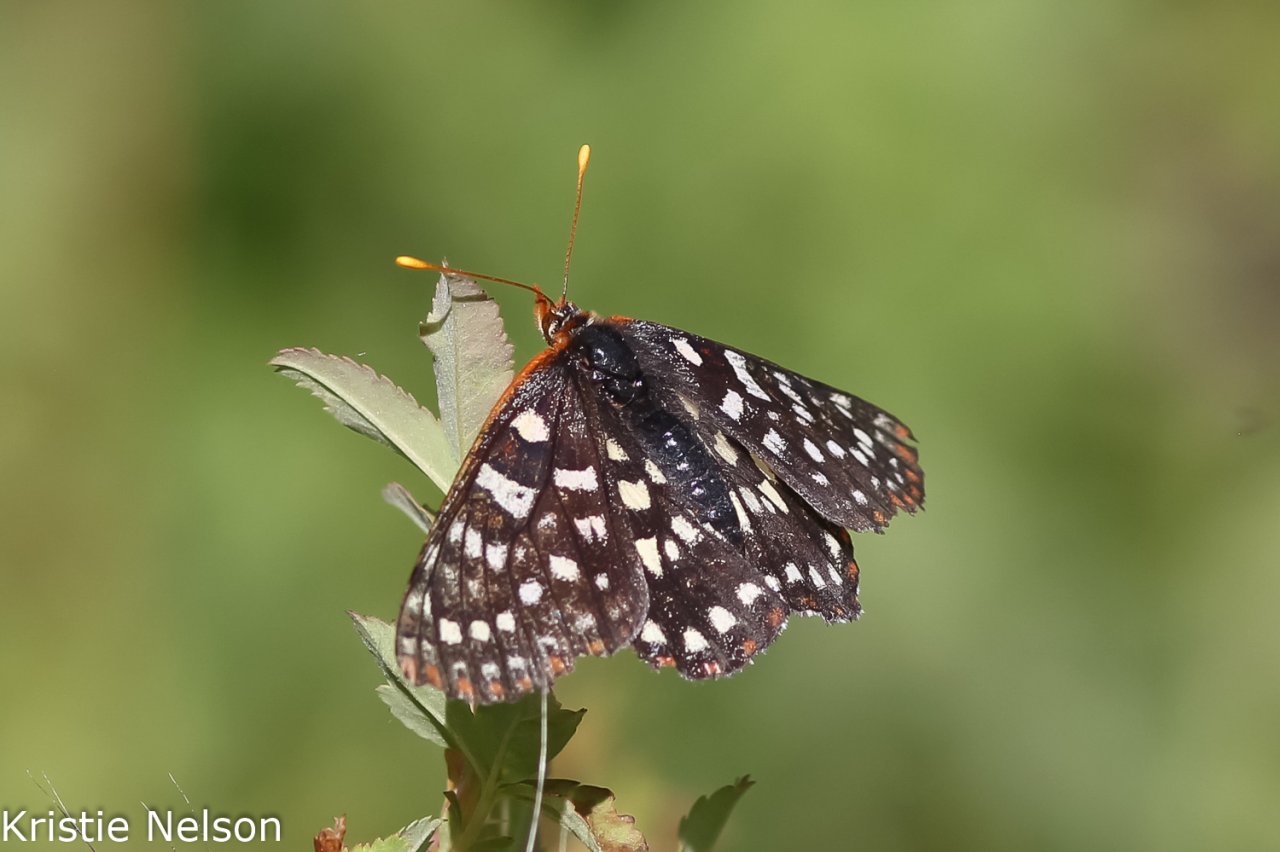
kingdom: Animalia
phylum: Arthropoda
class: Insecta
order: Lepidoptera
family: Nymphalidae
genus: Occidryas
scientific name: Occidryas colon
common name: Snowberry Checkerspot
